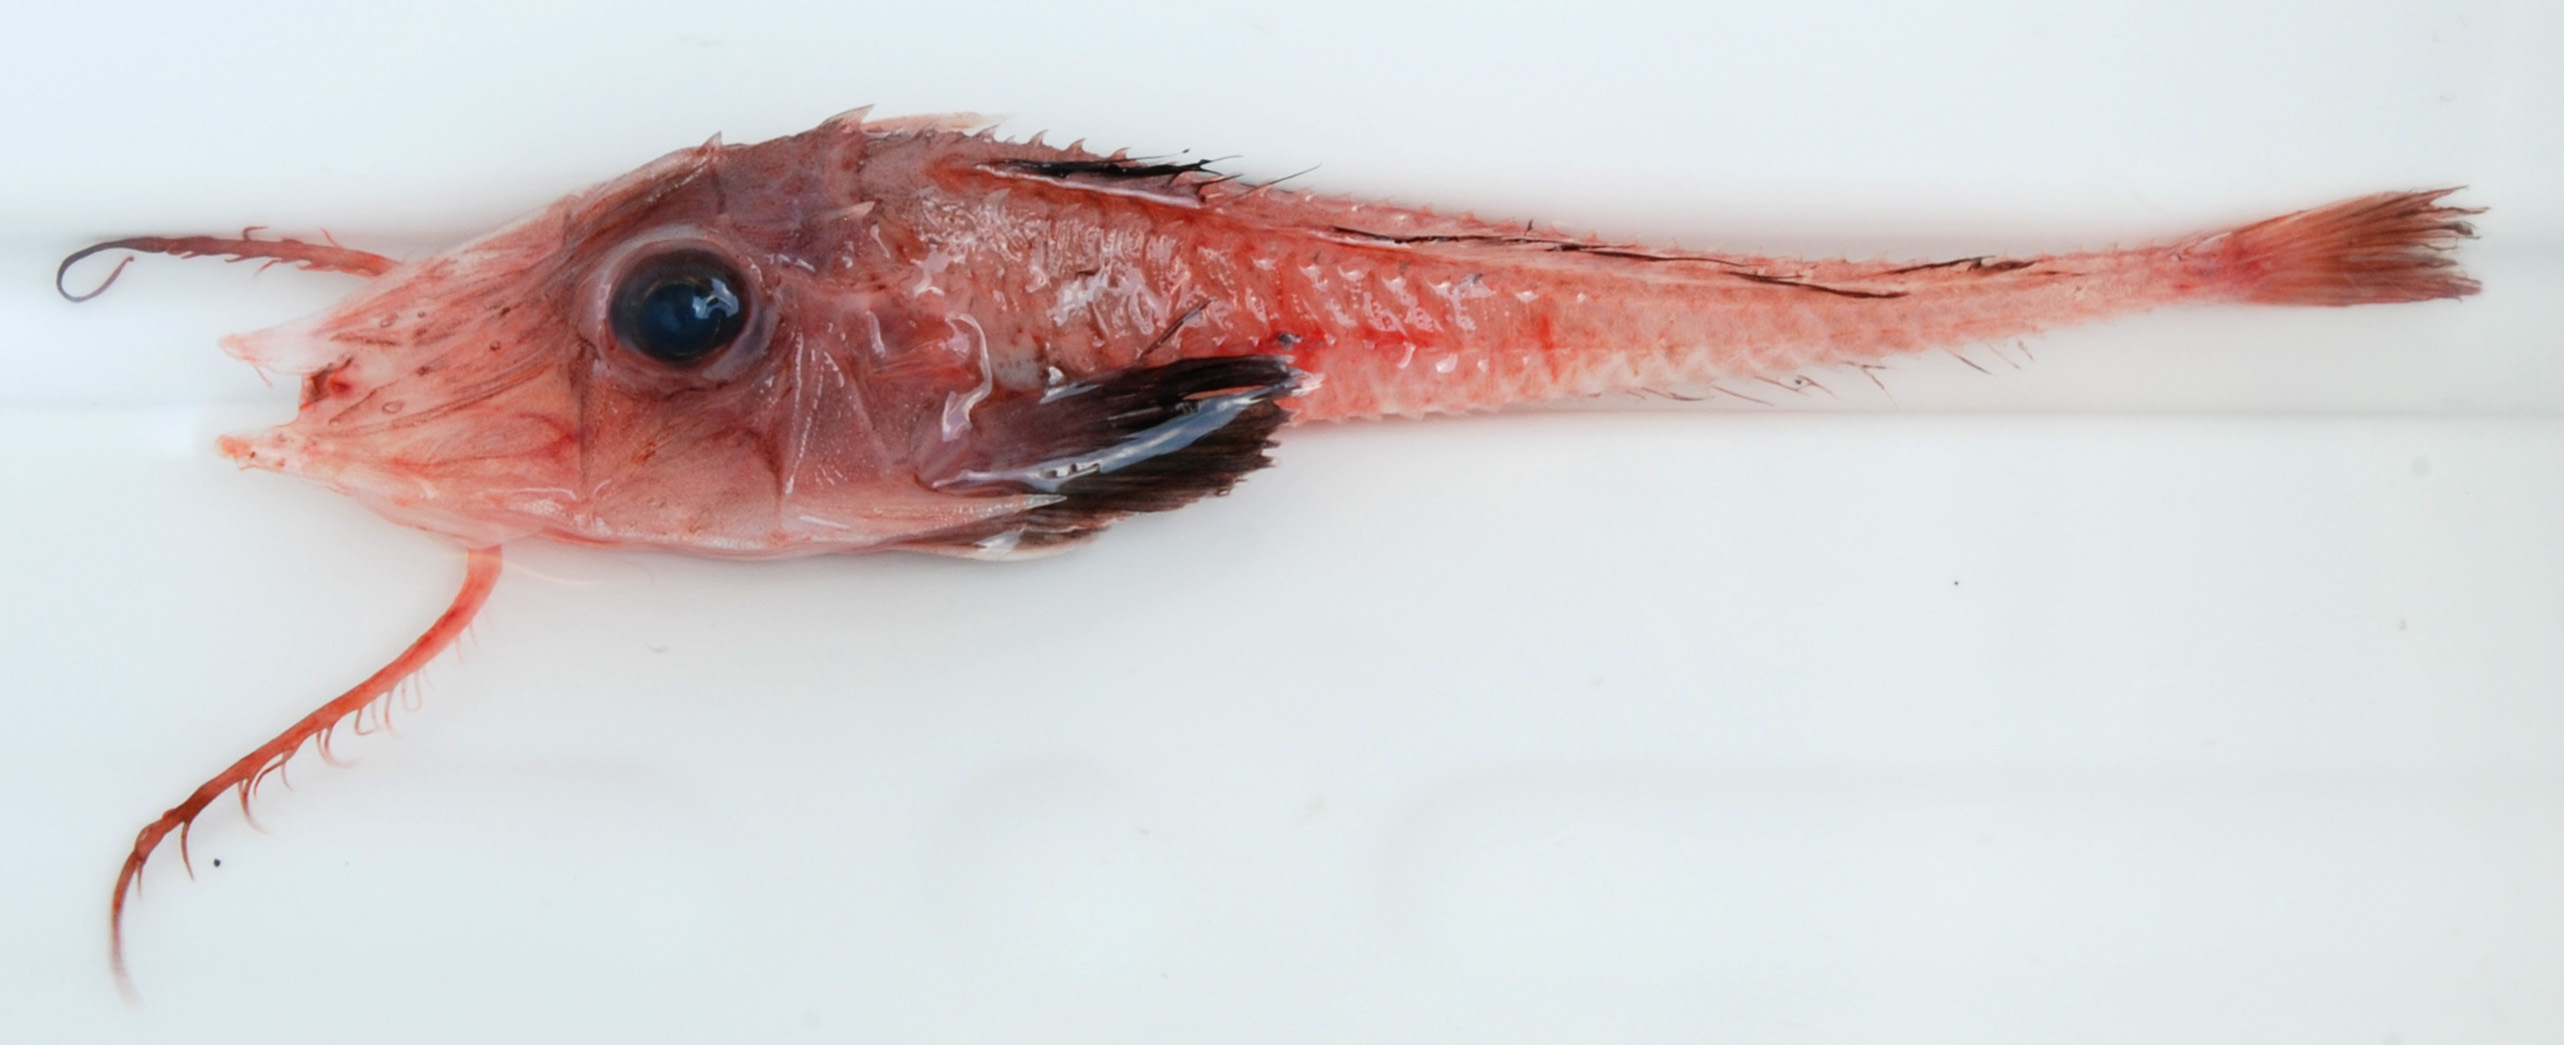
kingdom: Animalia
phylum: Chordata
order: Scorpaeniformes
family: Peristediidae
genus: Scalicus
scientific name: Scalicus investigatoris
